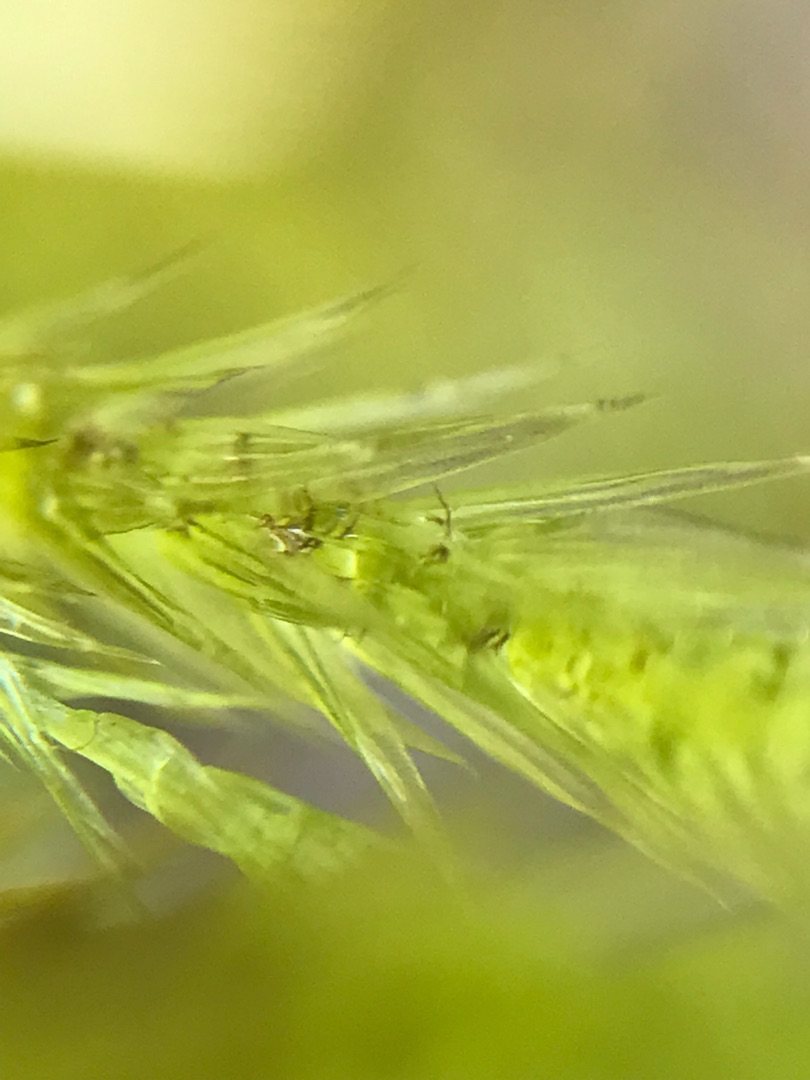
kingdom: Plantae
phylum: Bryophyta
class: Bryopsida
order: Hypnales
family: Amblystegiaceae
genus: Tomentypnum
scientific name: Tomentypnum nitens
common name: Glinsende kærmos
